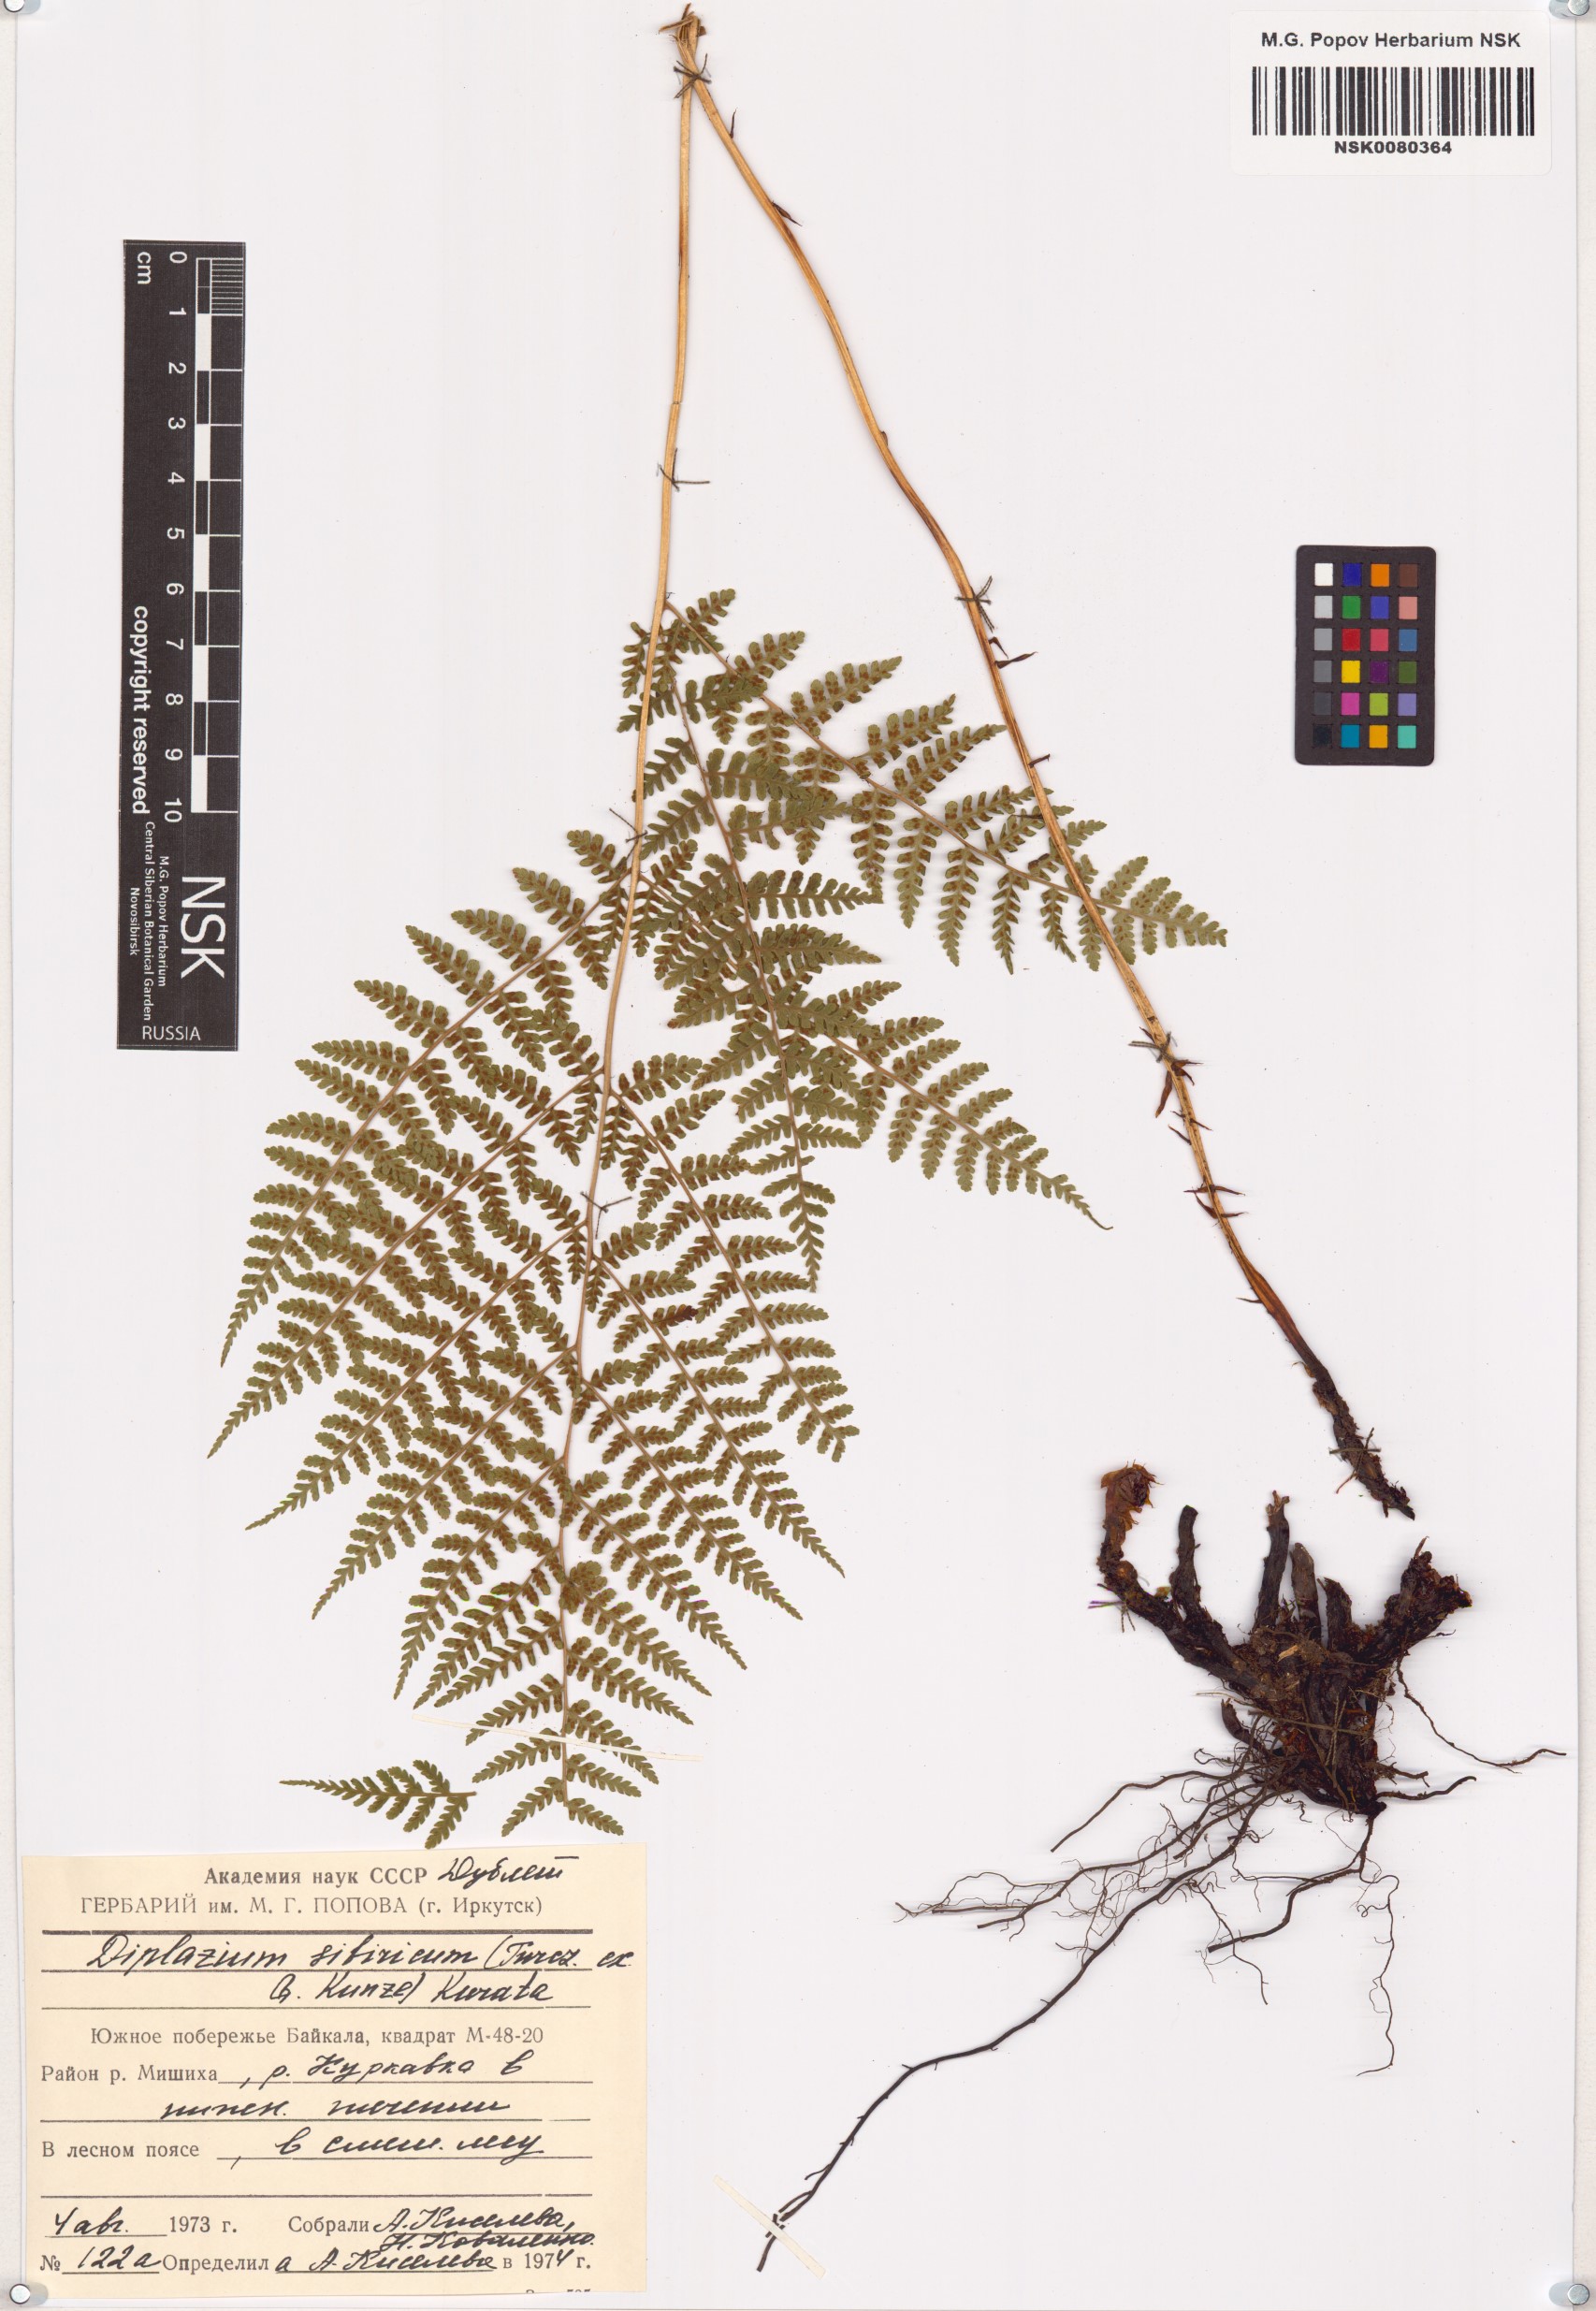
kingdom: Plantae
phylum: Tracheophyta
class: Polypodiopsida
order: Polypodiales
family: Athyriaceae
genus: Diplazium
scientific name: Diplazium sibiricum
